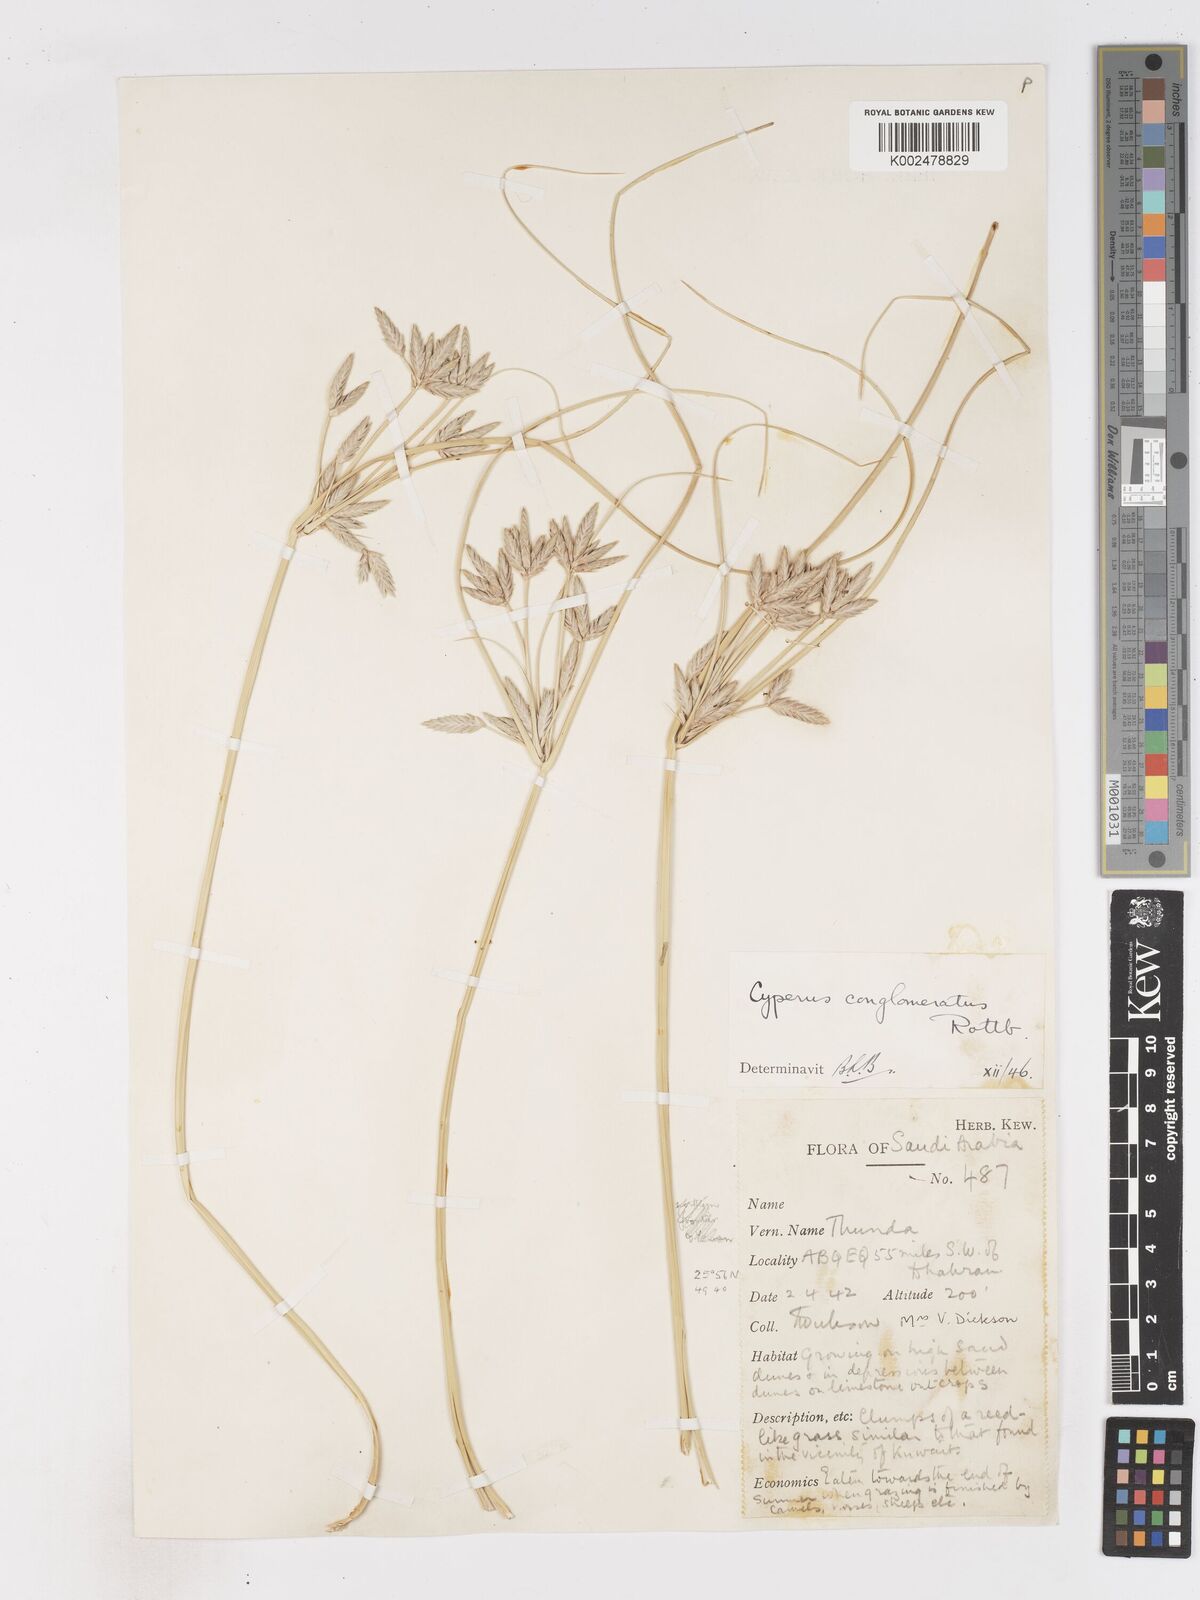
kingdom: Plantae
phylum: Tracheophyta
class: Liliopsida
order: Poales
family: Cyperaceae
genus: Cyperus
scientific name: Cyperus aucheri
